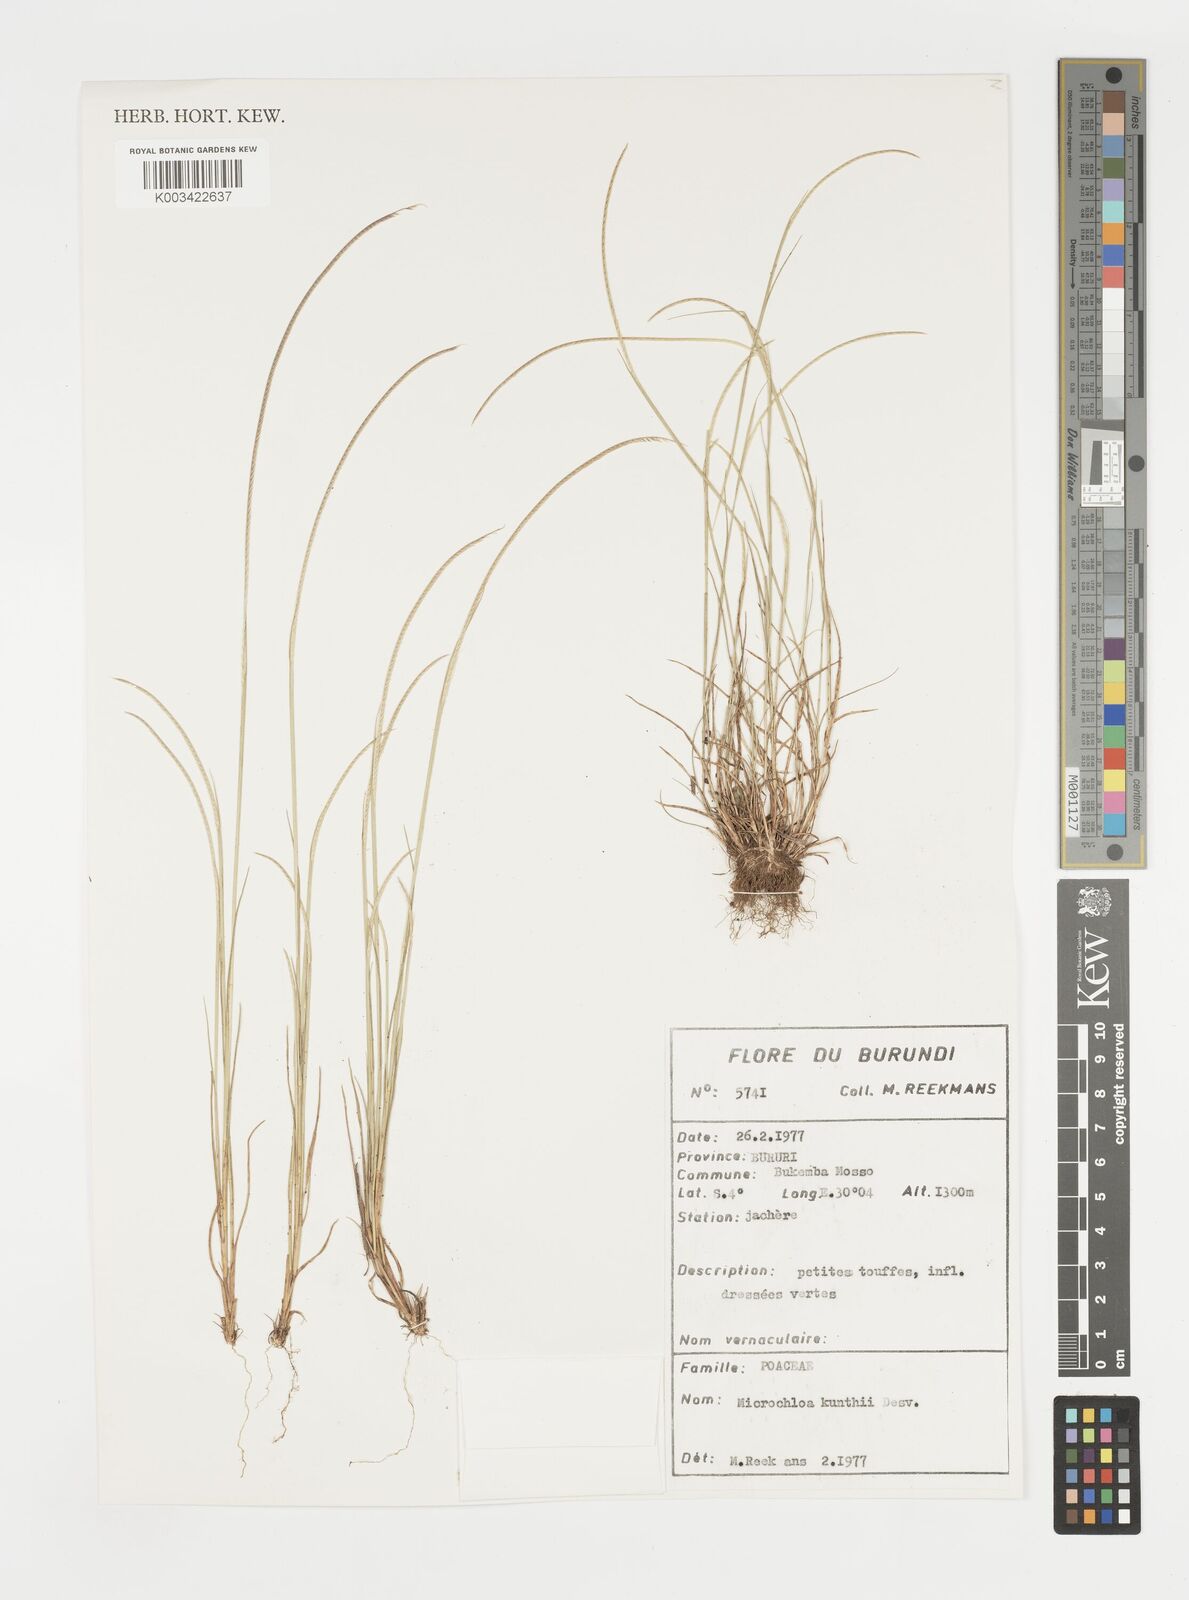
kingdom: Plantae
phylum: Tracheophyta
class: Liliopsida
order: Poales
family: Poaceae
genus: Microchloa
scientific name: Microchloa kunthii
